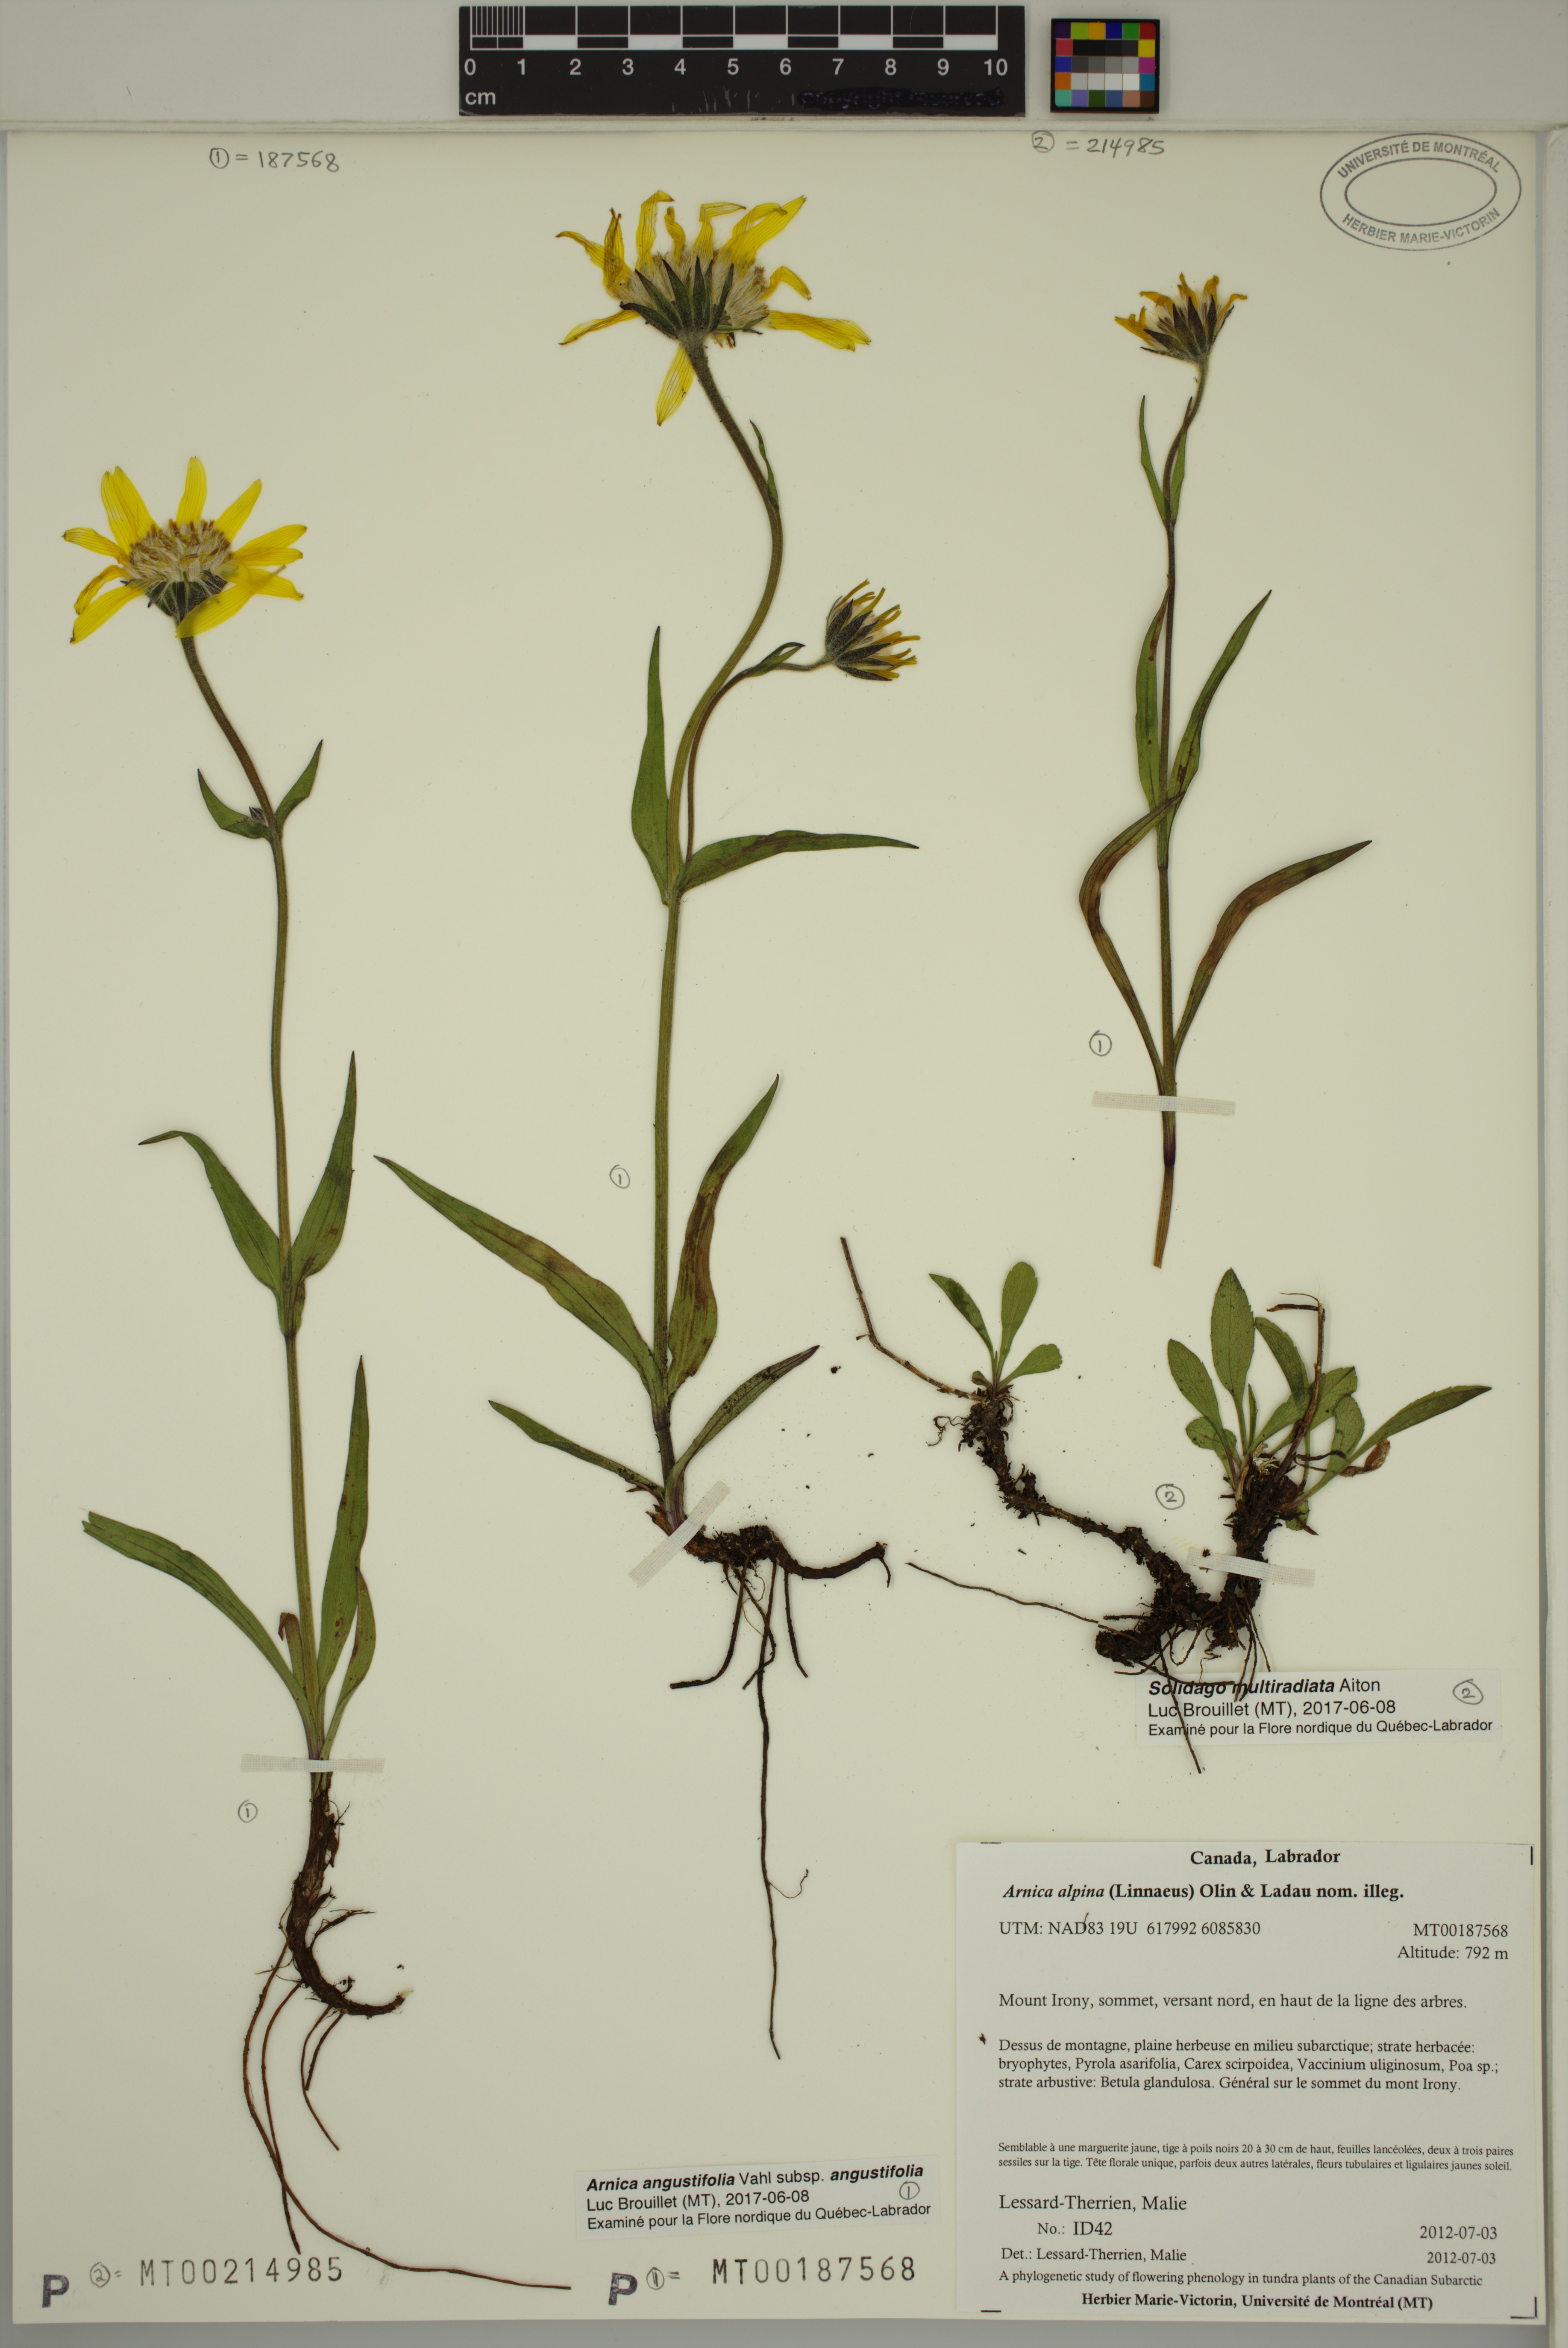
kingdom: Plantae
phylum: Tracheophyta
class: Magnoliopsida
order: Asterales
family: Asteraceae
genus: Arnica
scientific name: Arnica angustifolia
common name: Arctic arnica
